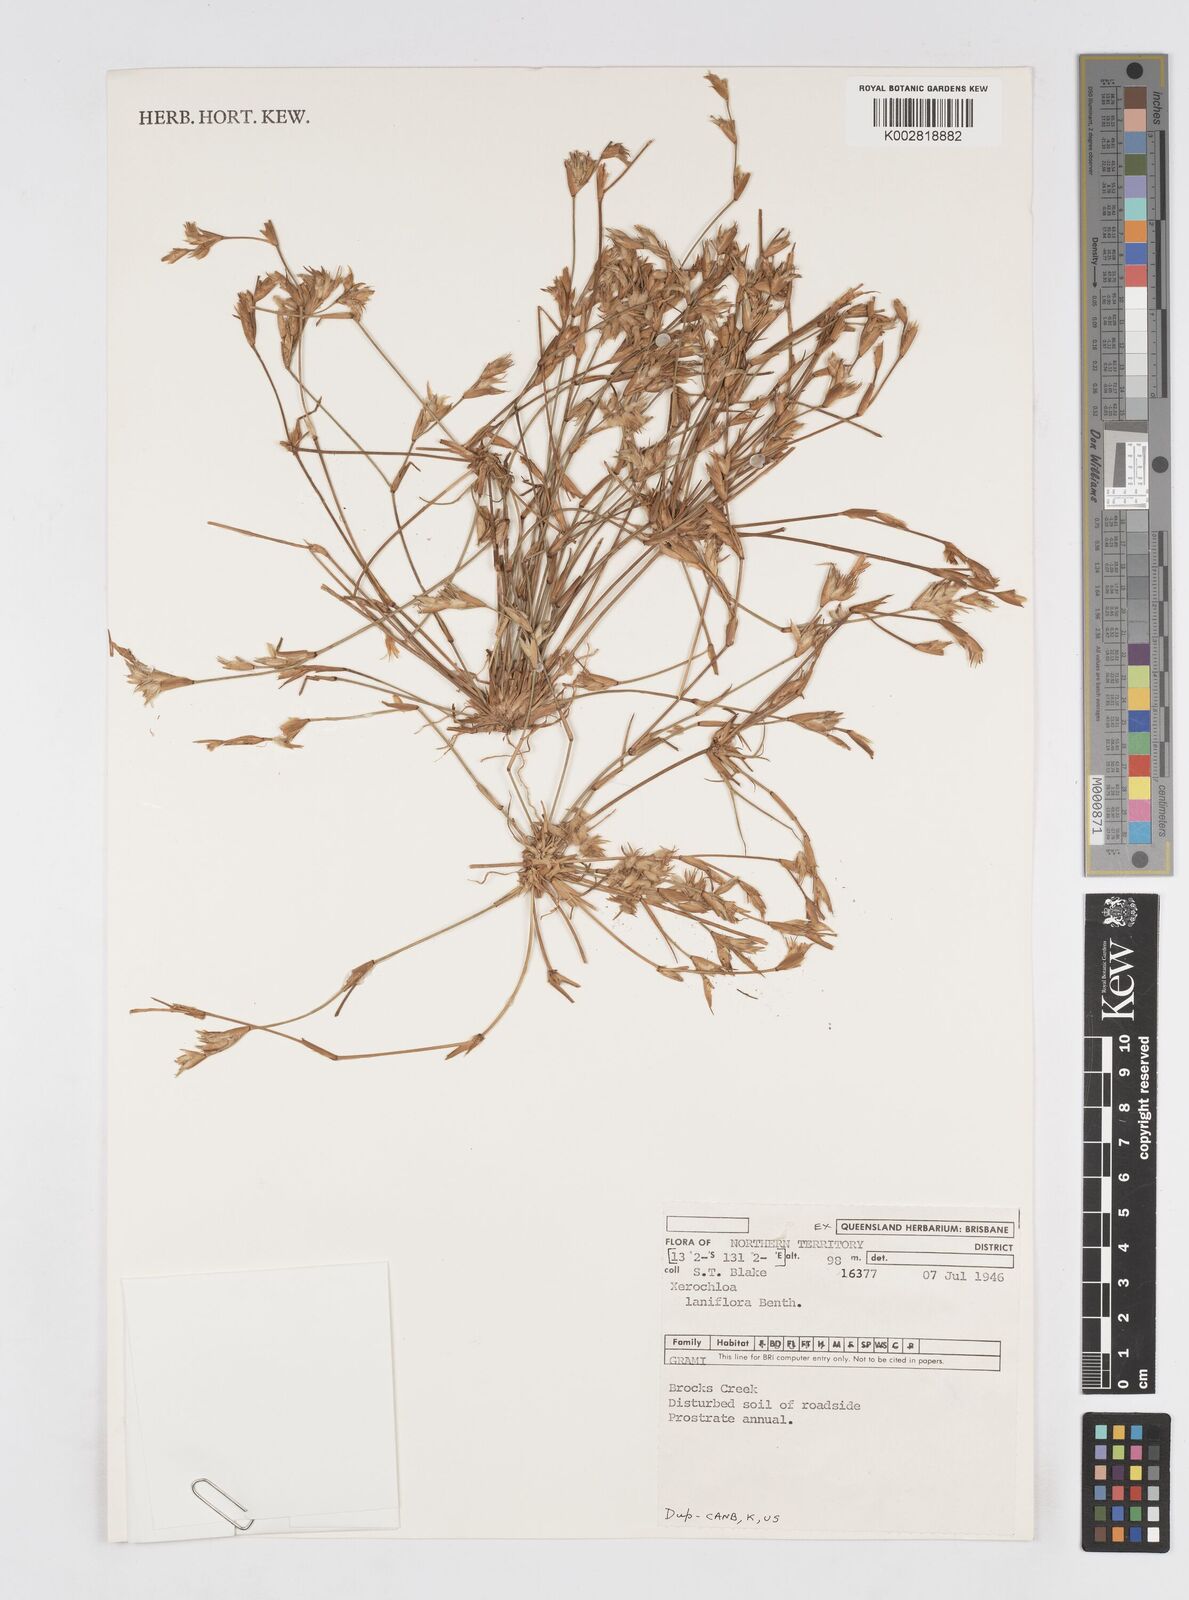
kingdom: Plantae
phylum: Tracheophyta
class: Liliopsida
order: Poales
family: Poaceae
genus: Xerochloa
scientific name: Xerochloa laniflora
